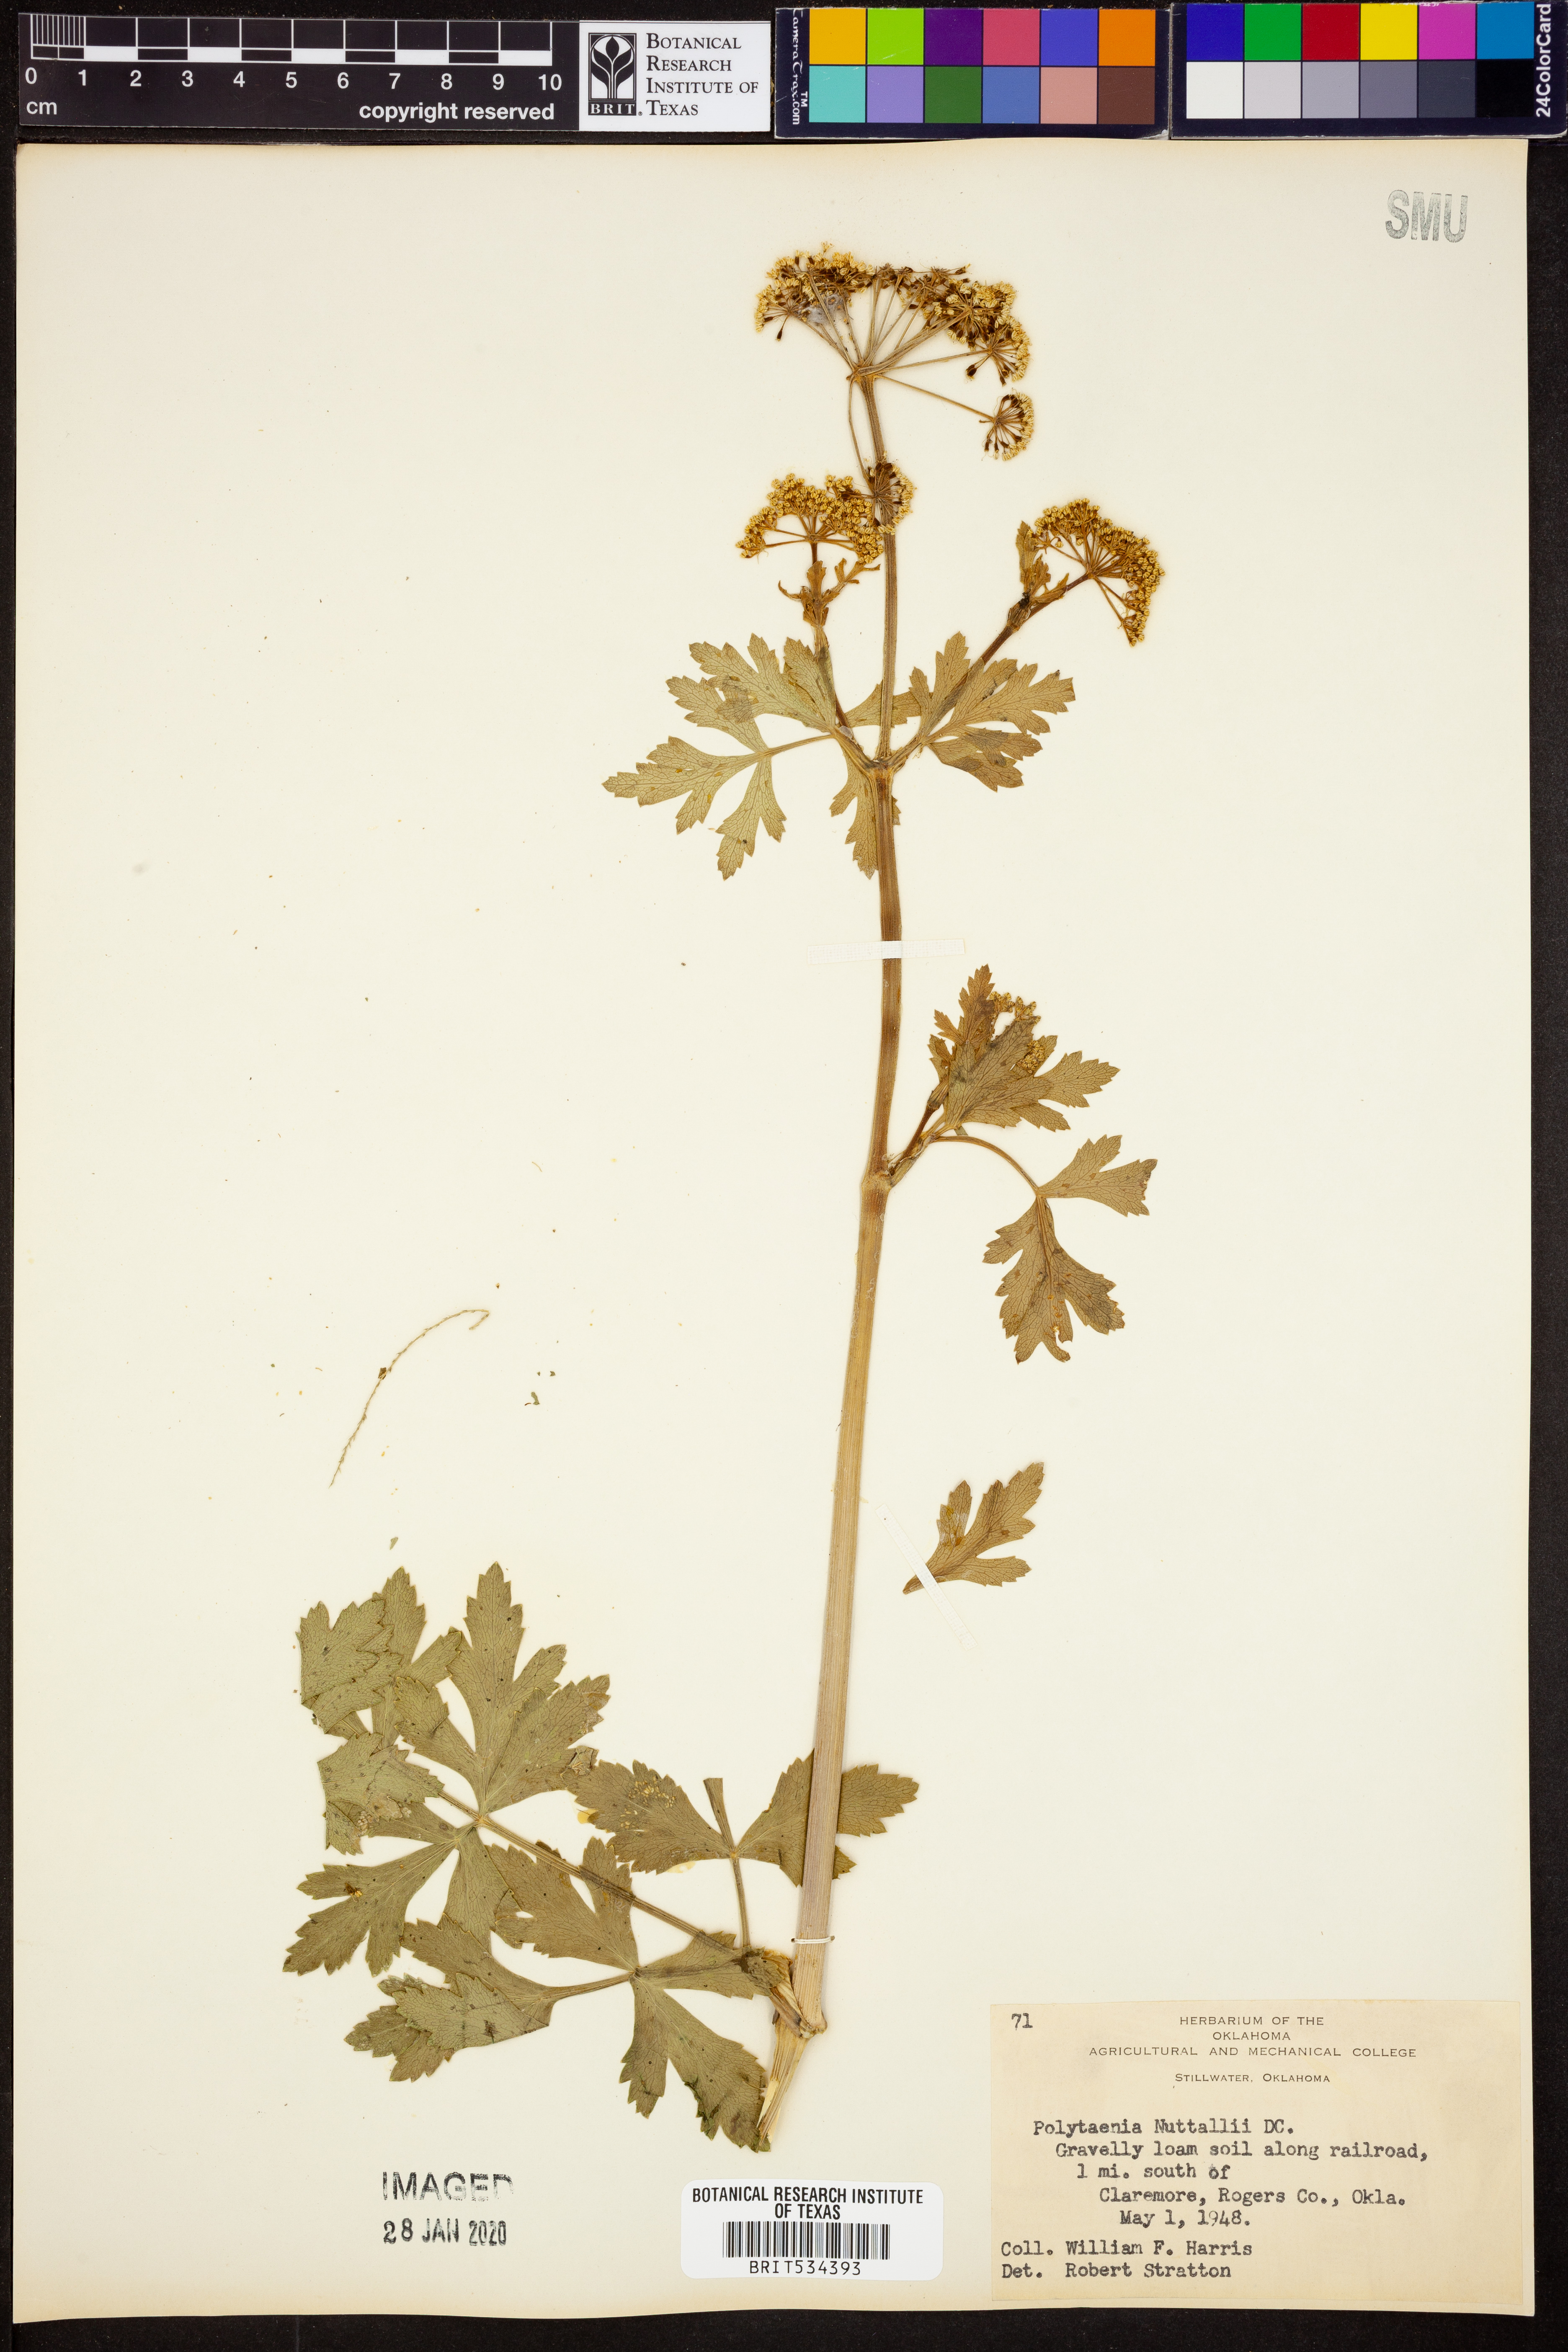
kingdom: Plantae
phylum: Tracheophyta
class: Magnoliopsida
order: Apiales
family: Apiaceae
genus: Polytaenia
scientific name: Polytaenia nuttallii
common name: Prairie-parsley
